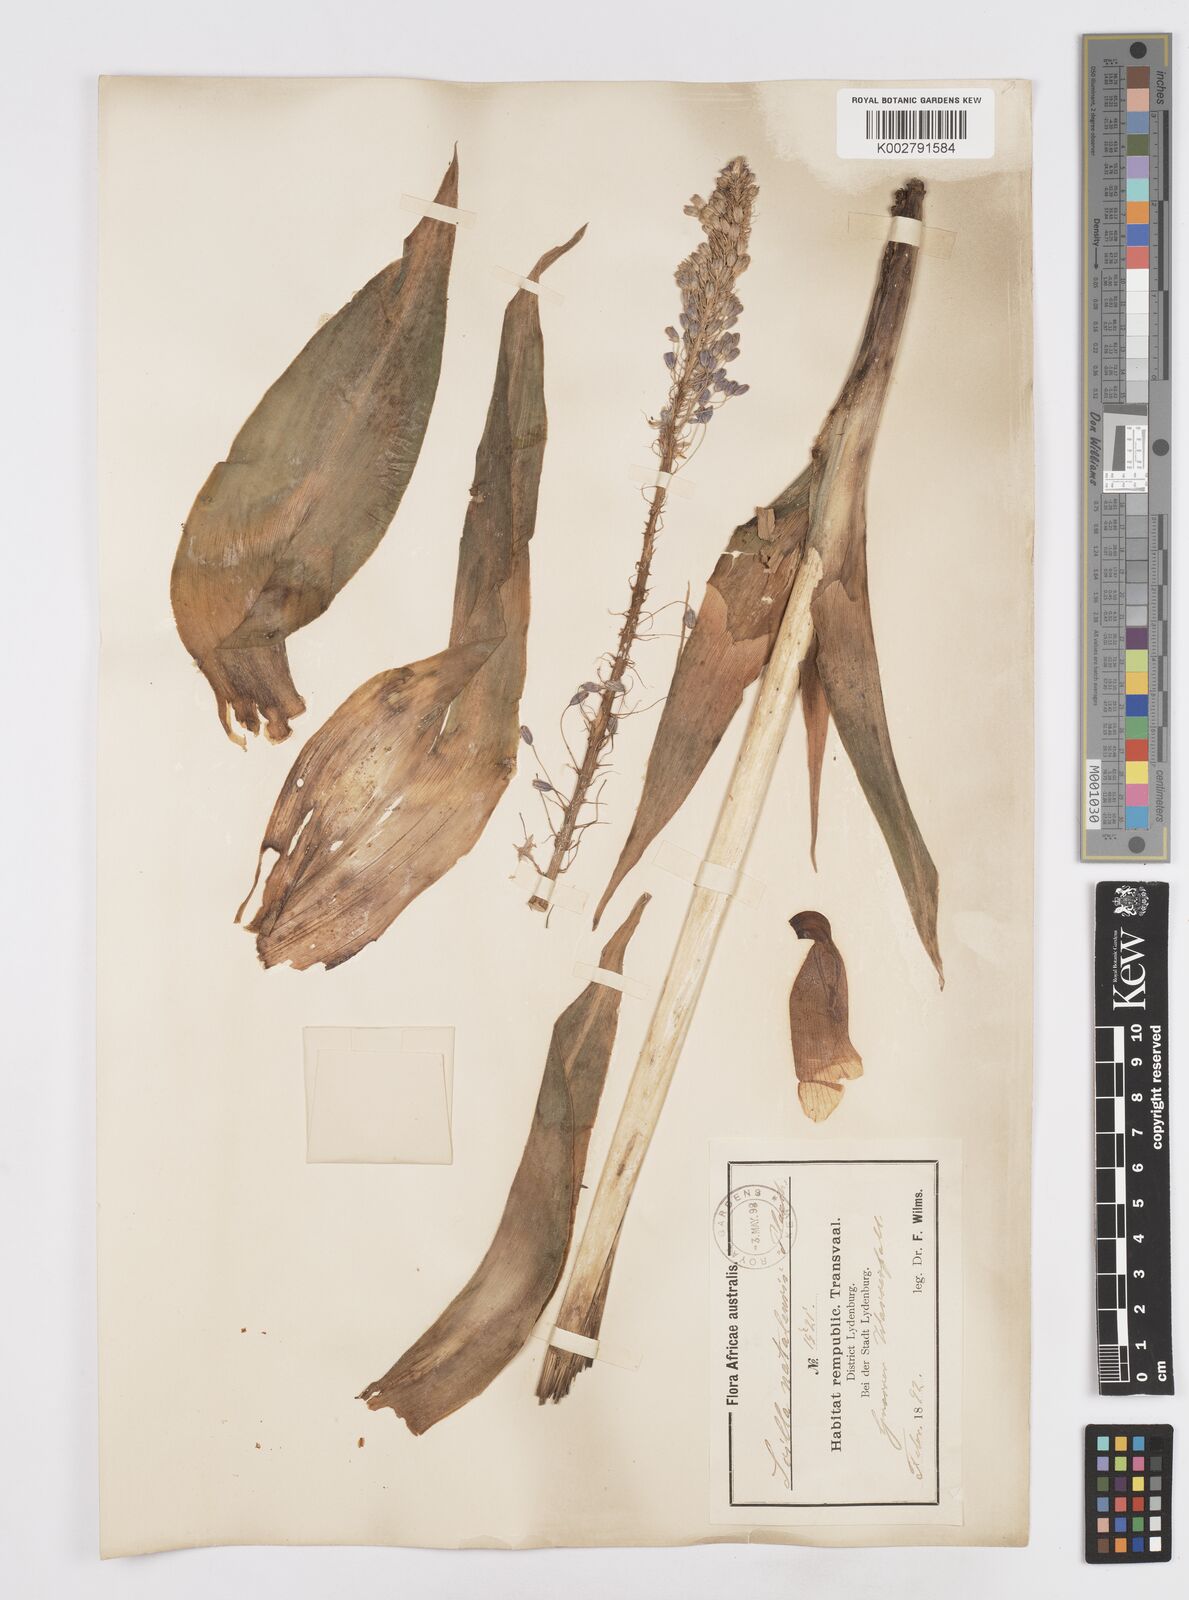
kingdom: Plantae
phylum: Tracheophyta
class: Liliopsida
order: Asparagales
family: Asparagaceae
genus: Merwilla
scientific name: Merwilla plumbea
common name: Blue-squill
